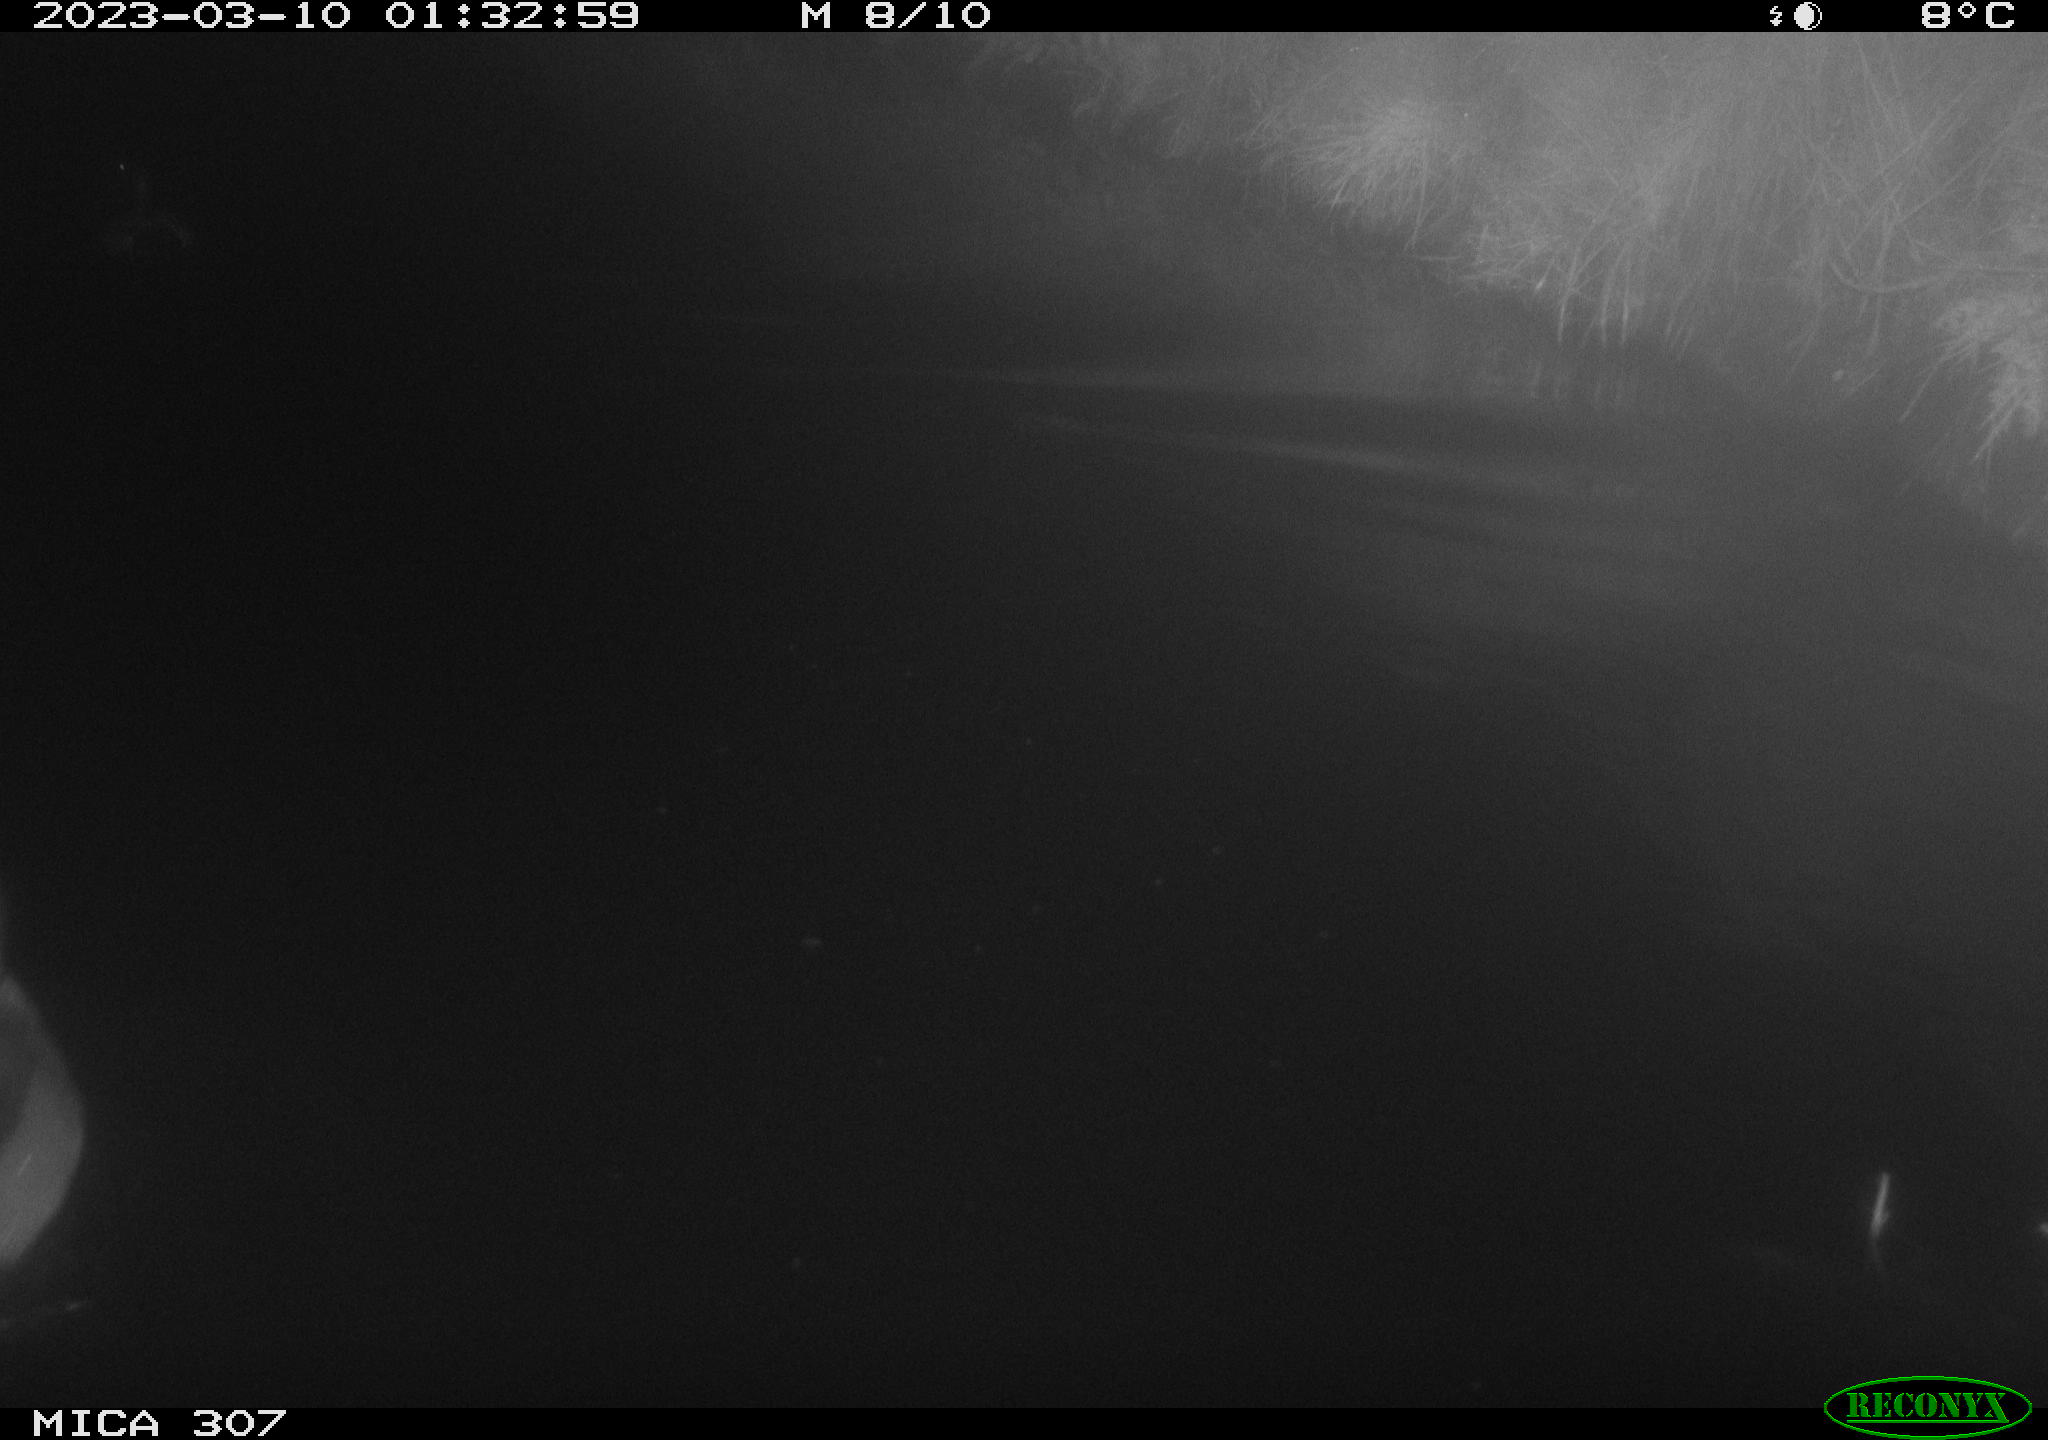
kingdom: Animalia
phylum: Chordata
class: Aves
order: Anseriformes
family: Anatidae
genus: Anas
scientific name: Anas
